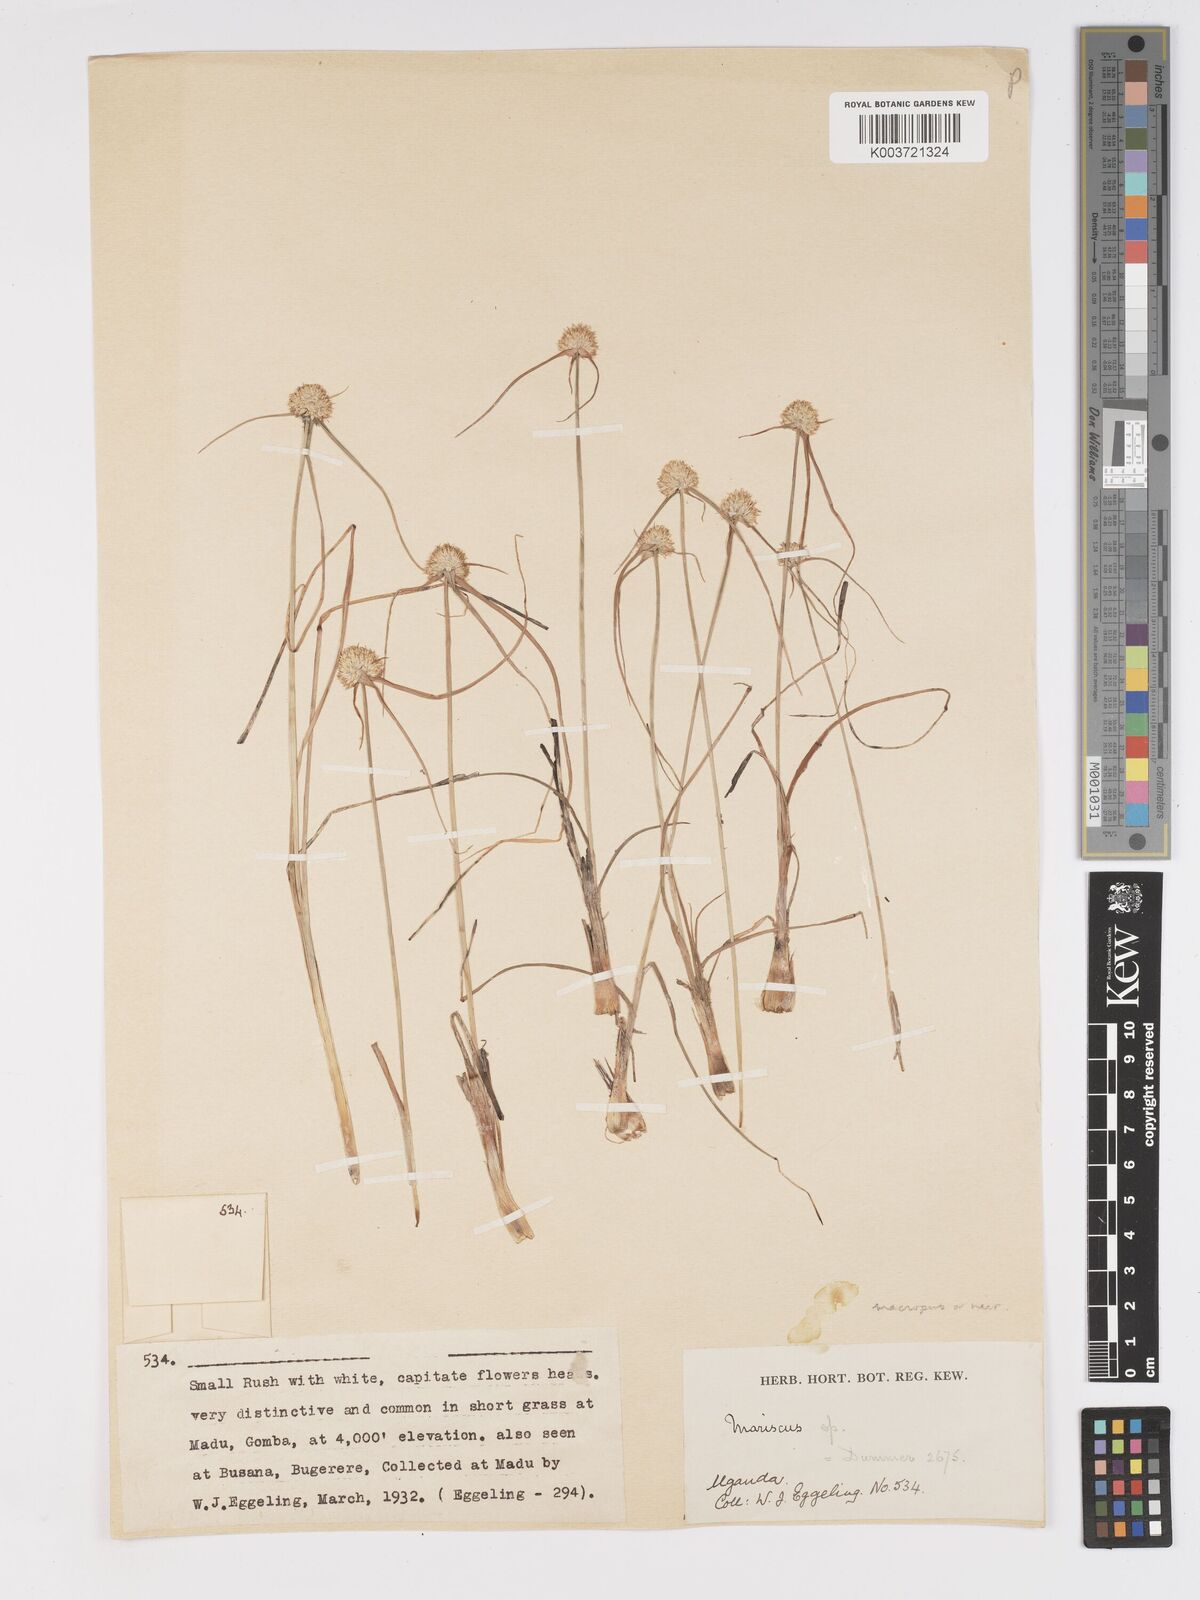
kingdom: Plantae
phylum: Tracheophyta
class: Liliopsida
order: Poales
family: Cyperaceae
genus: Cyperus
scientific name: Cyperus mollipes
